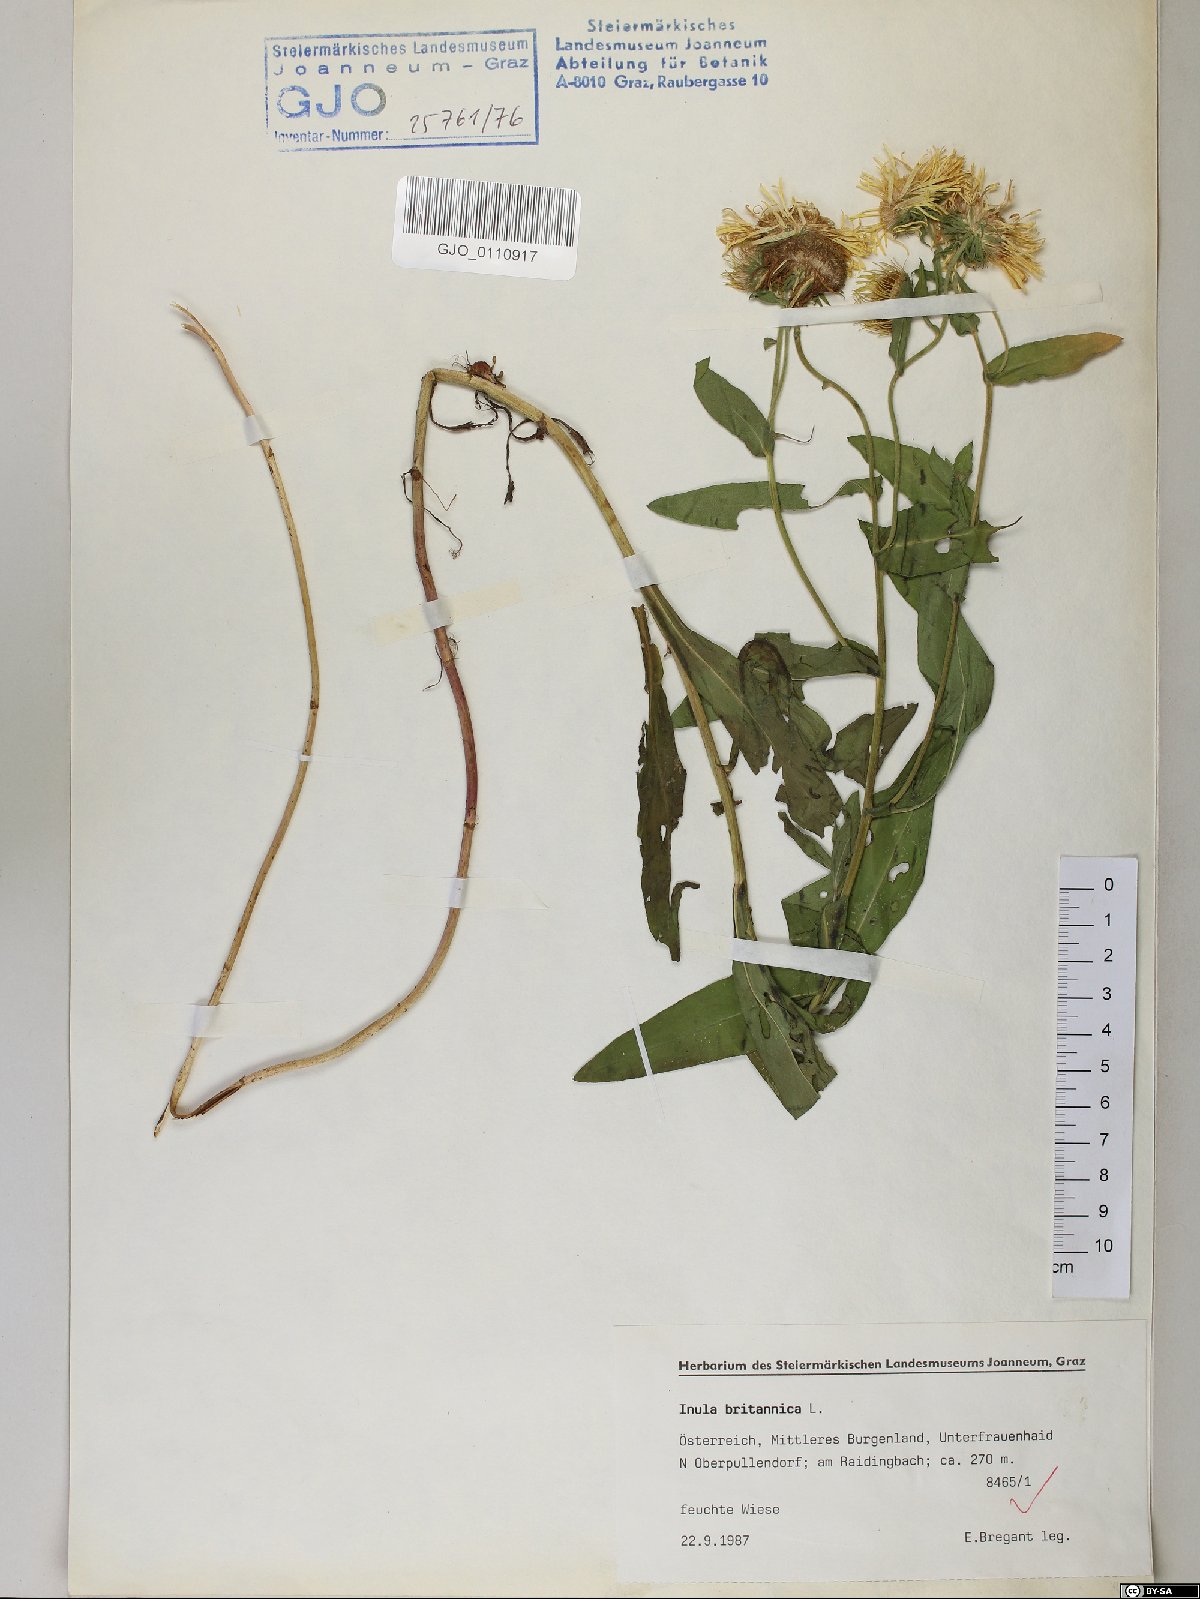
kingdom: Plantae
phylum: Tracheophyta
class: Magnoliopsida
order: Asterales
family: Asteraceae
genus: Pentanema
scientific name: Pentanema britannicum
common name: British elecampane
